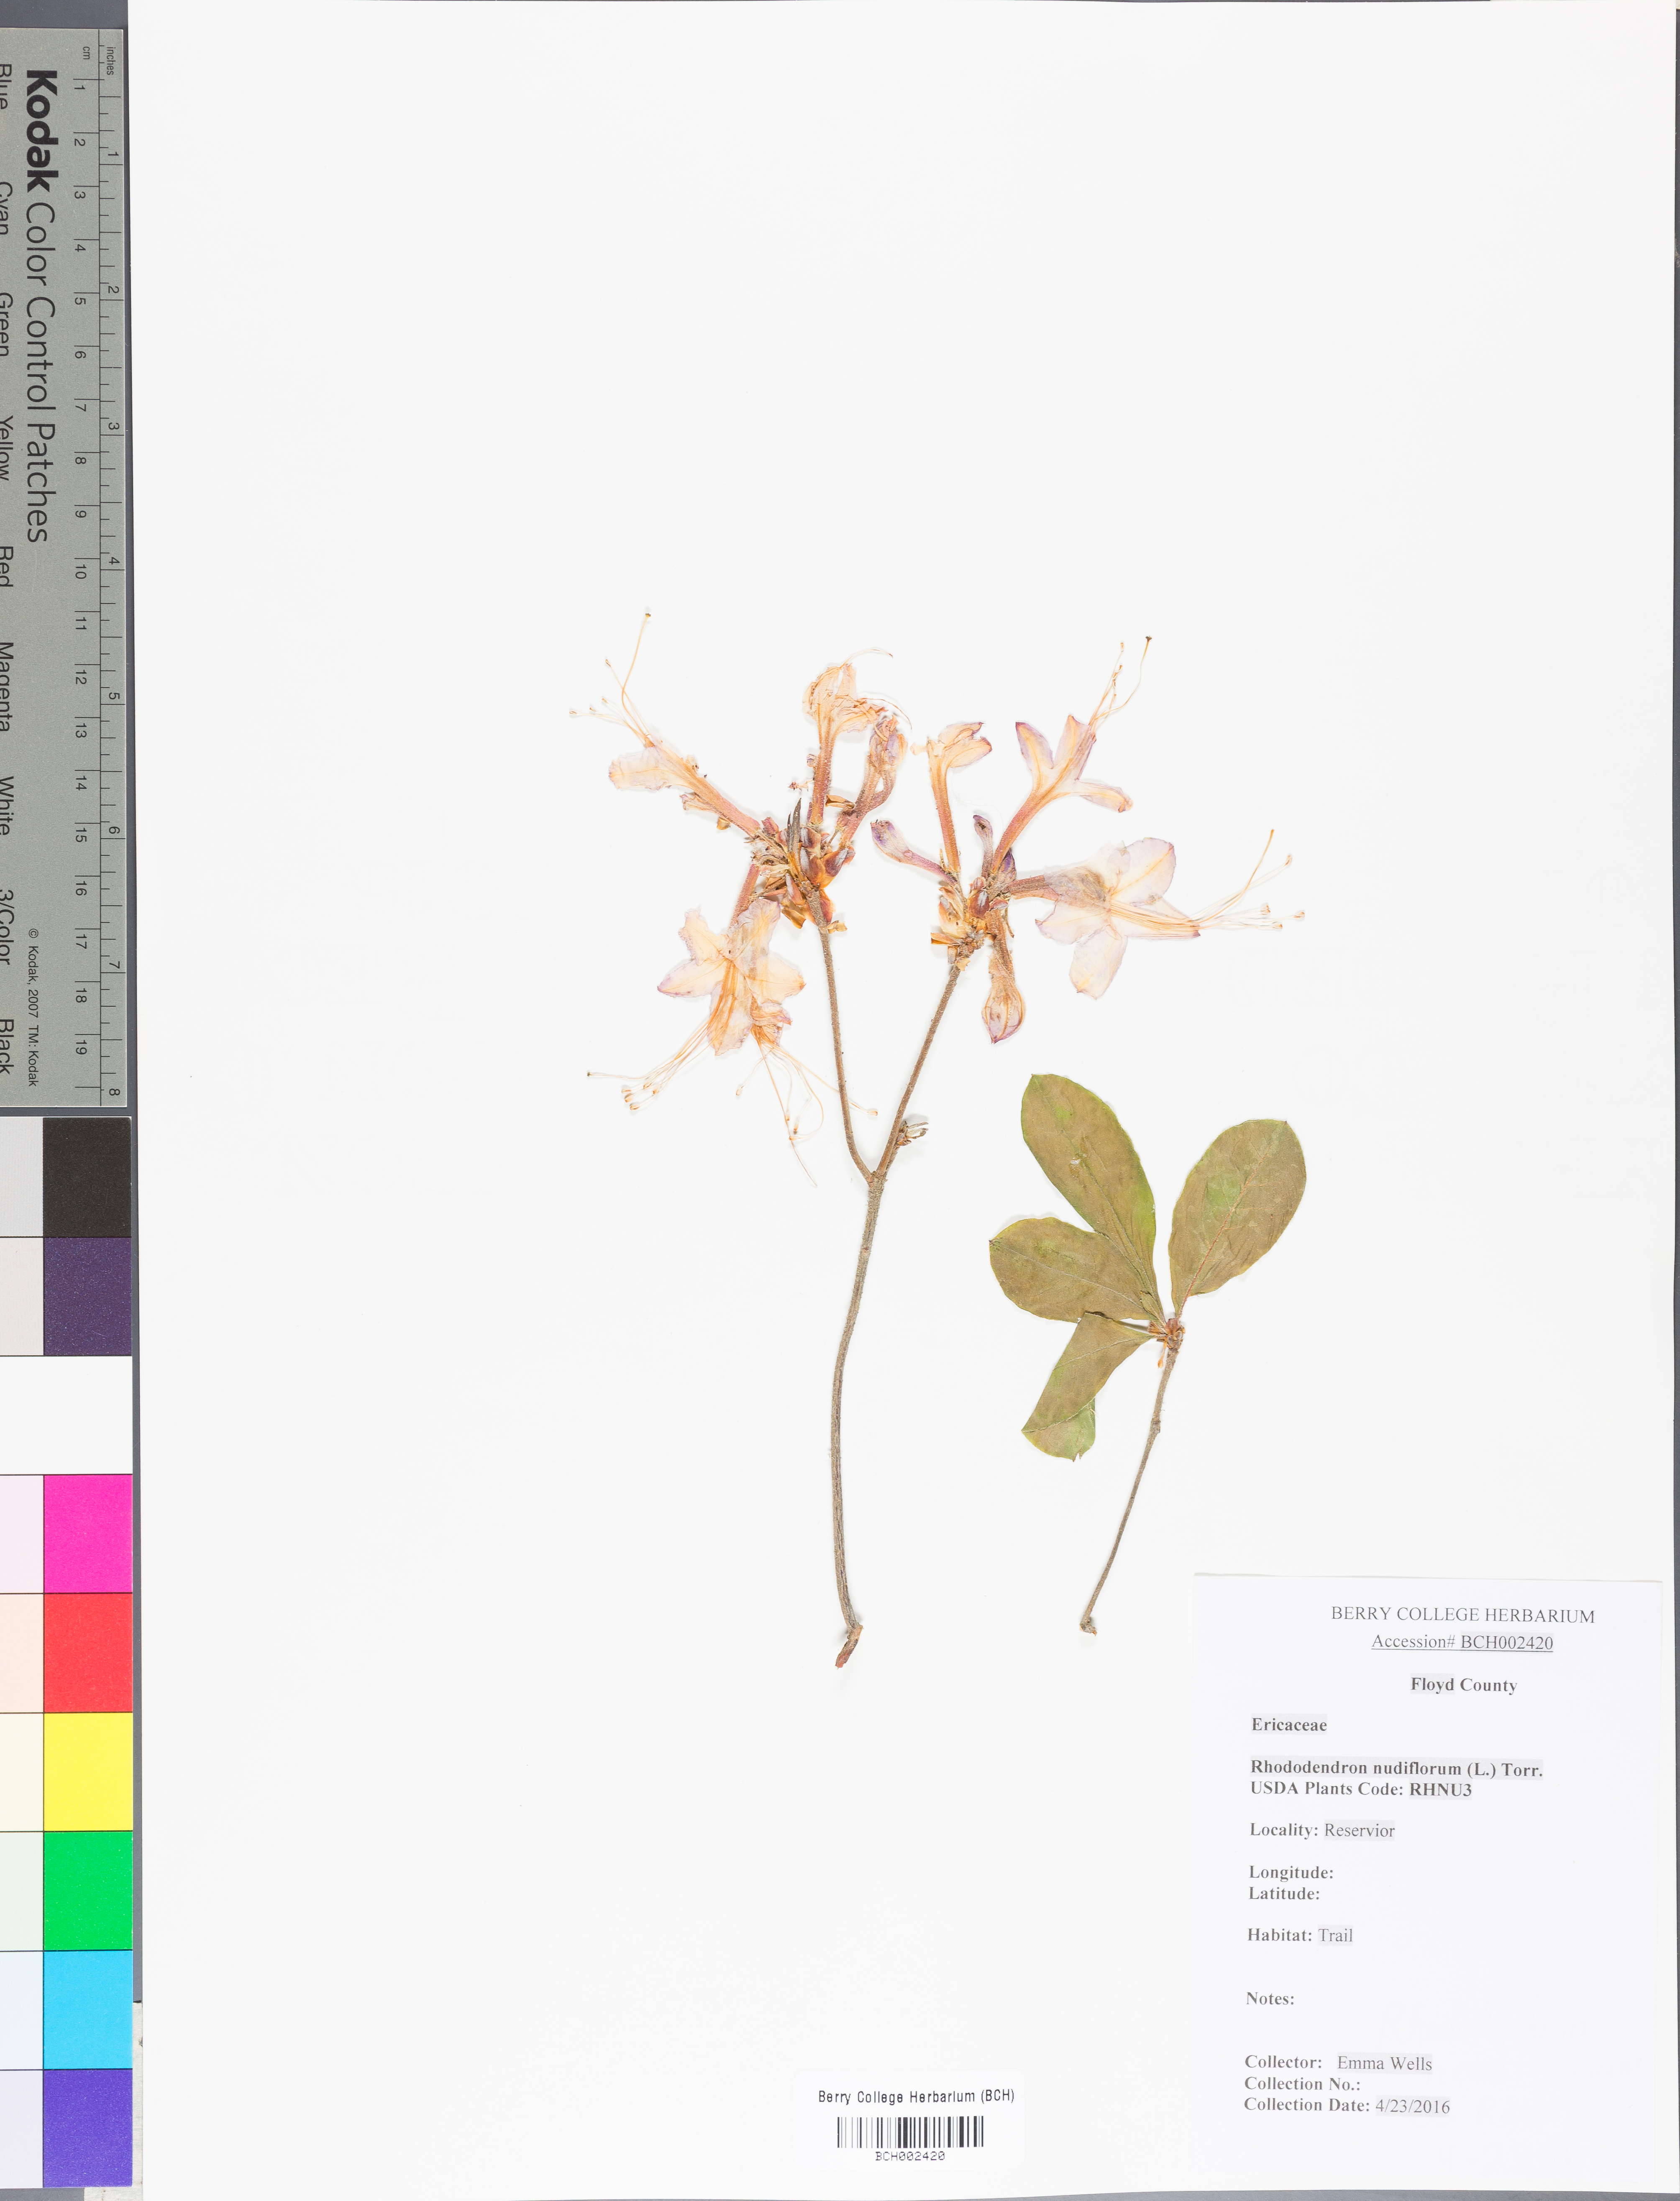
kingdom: Plantae
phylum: Tracheophyta
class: Magnoliopsida
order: Ericales
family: Ericaceae
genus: Rhododendron
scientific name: Rhododendron periclymenoides
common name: Election-pink
